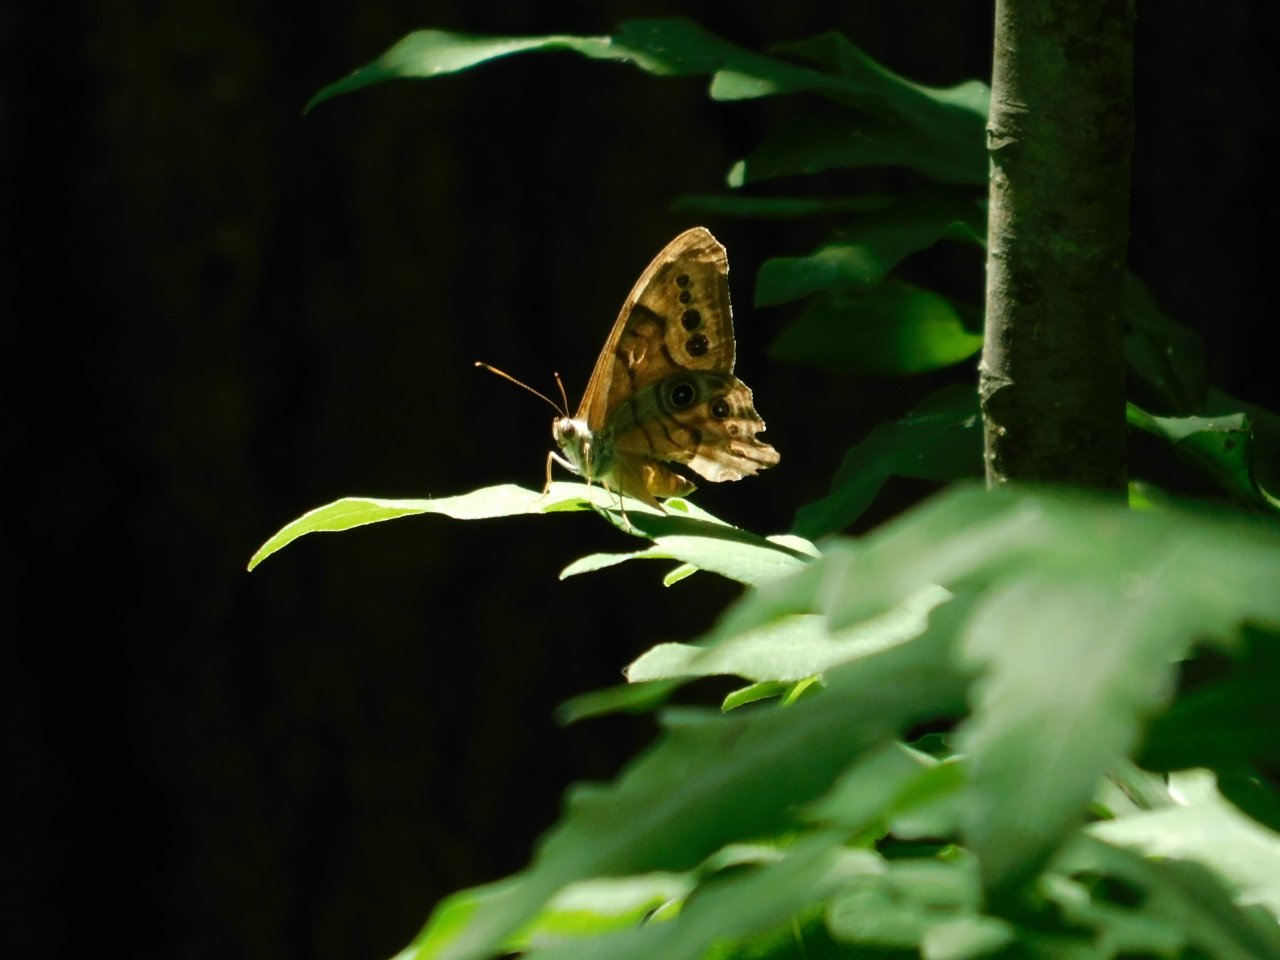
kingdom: Animalia
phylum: Arthropoda
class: Insecta
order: Lepidoptera
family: Nymphalidae
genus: Lethe
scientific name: Lethe anthedon
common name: Northern Pearly-Eye
